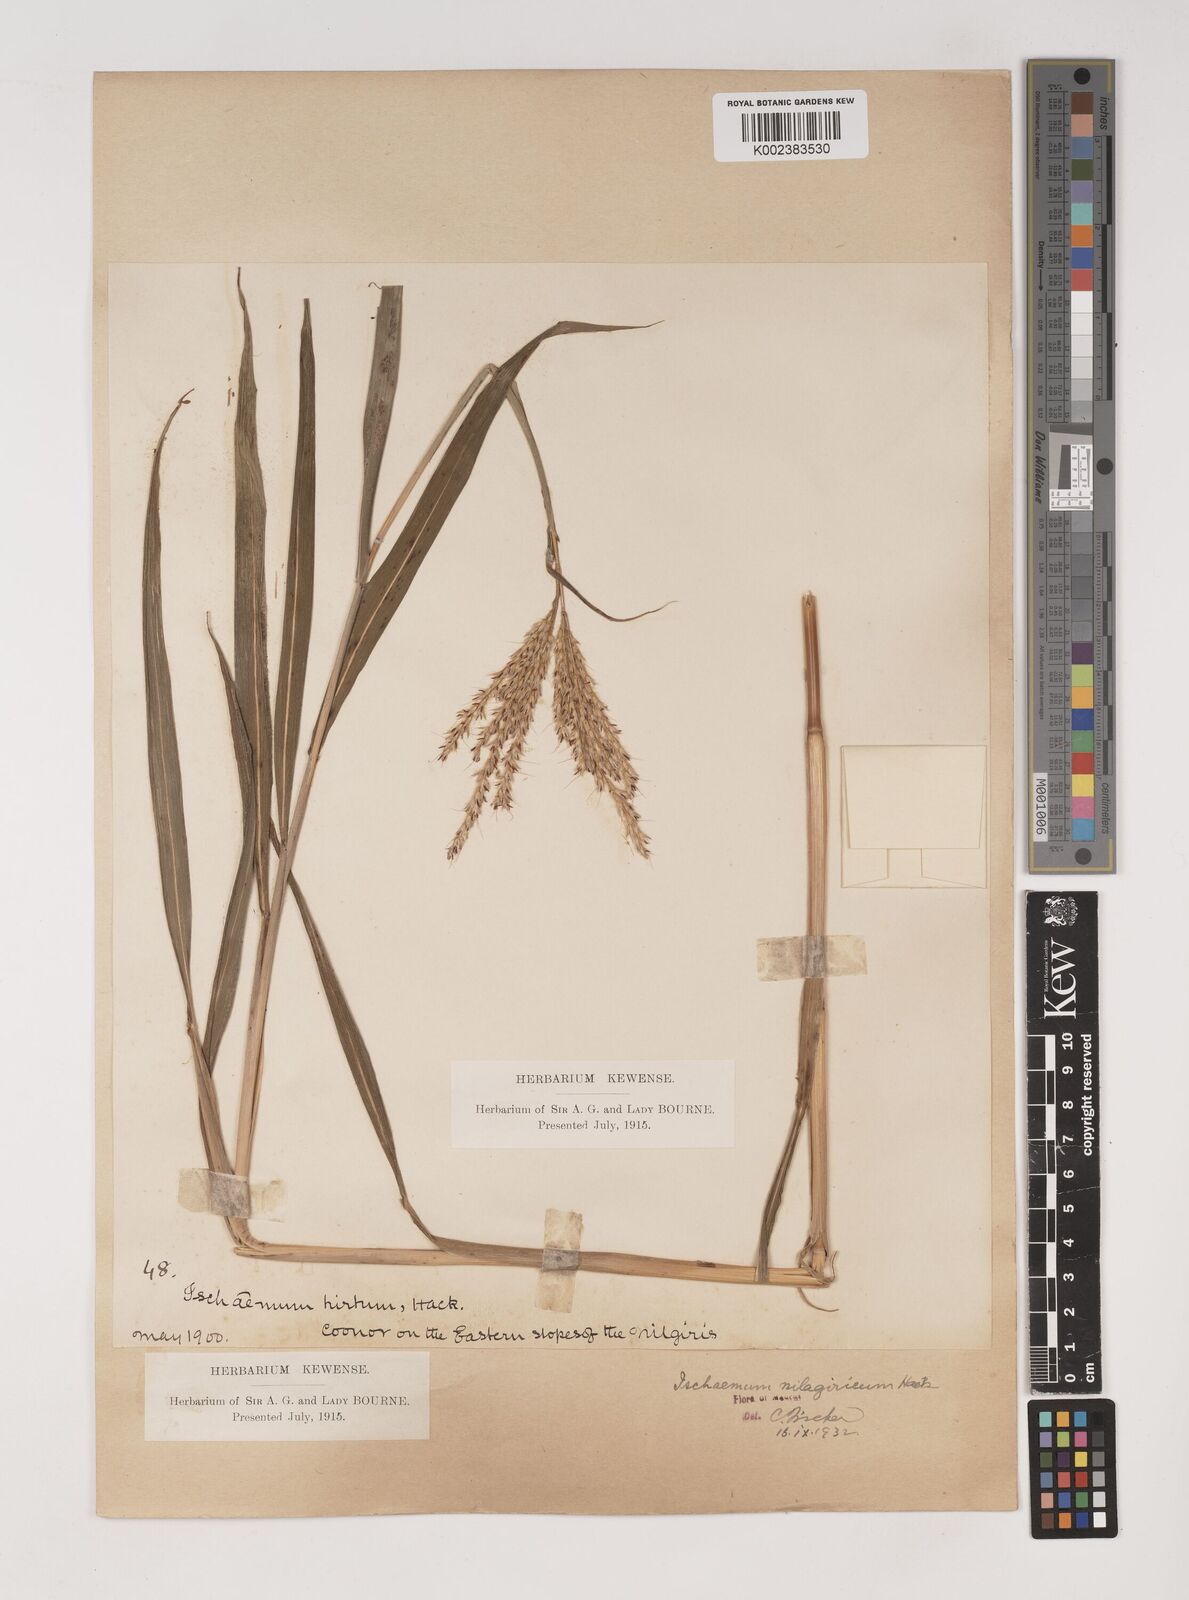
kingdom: Plantae
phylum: Tracheophyta
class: Liliopsida
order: Poales
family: Poaceae
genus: Ischaemum
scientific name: Ischaemum
